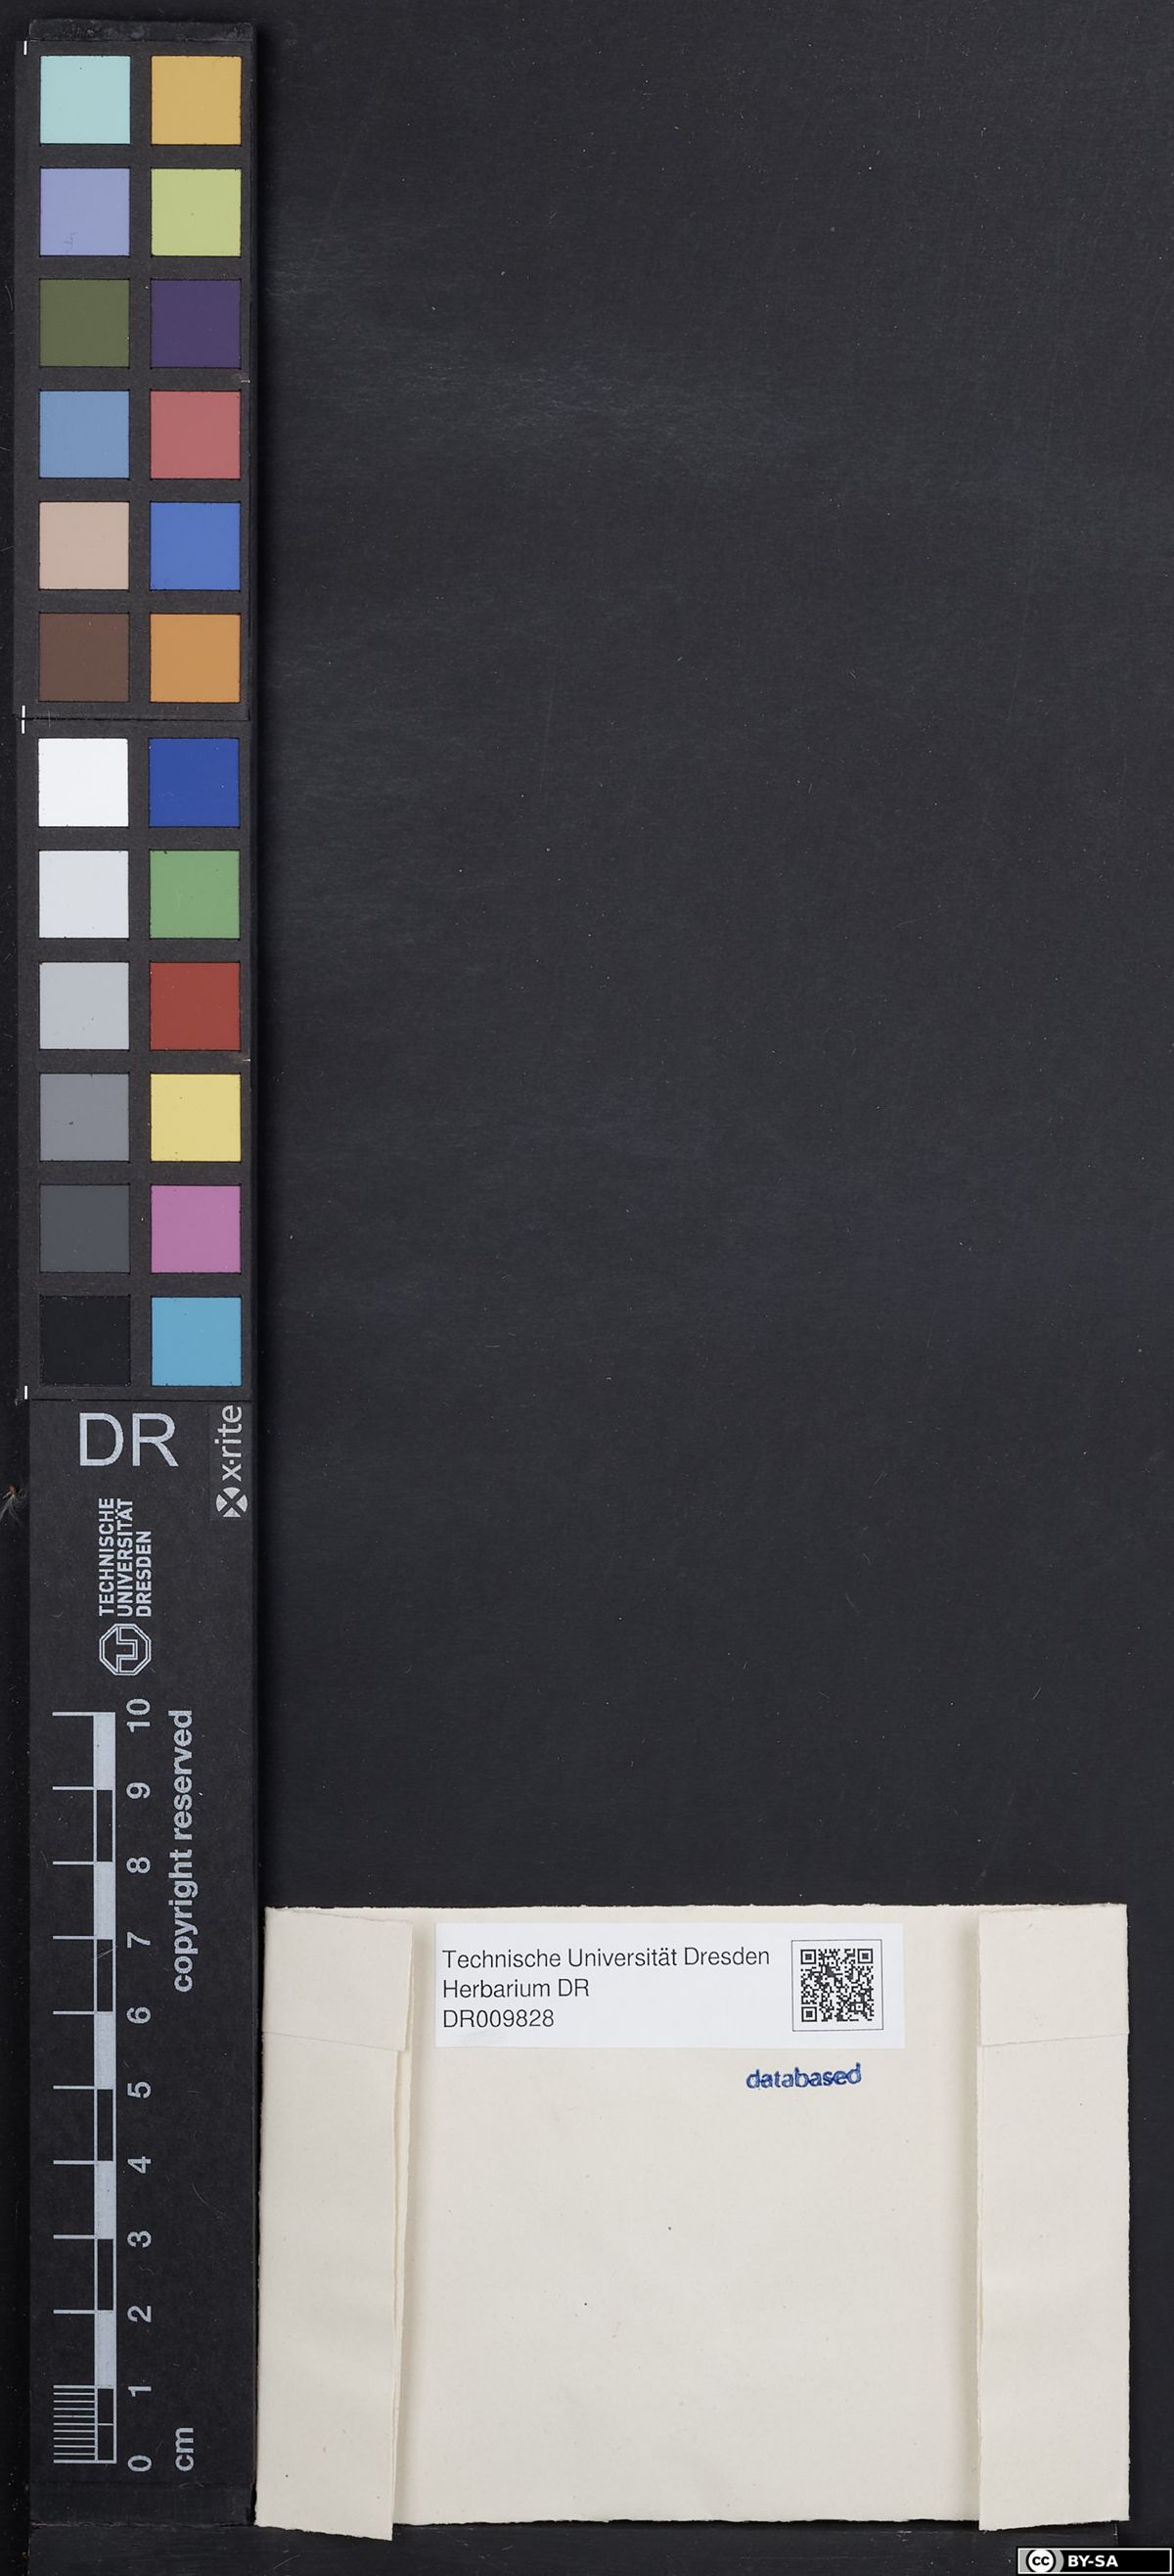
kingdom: Plantae
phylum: Tracheophyta
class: Magnoliopsida
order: Malpighiales
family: Elatinaceae
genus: Elatine
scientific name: Elatine triandra
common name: Three-stamened waterwort
